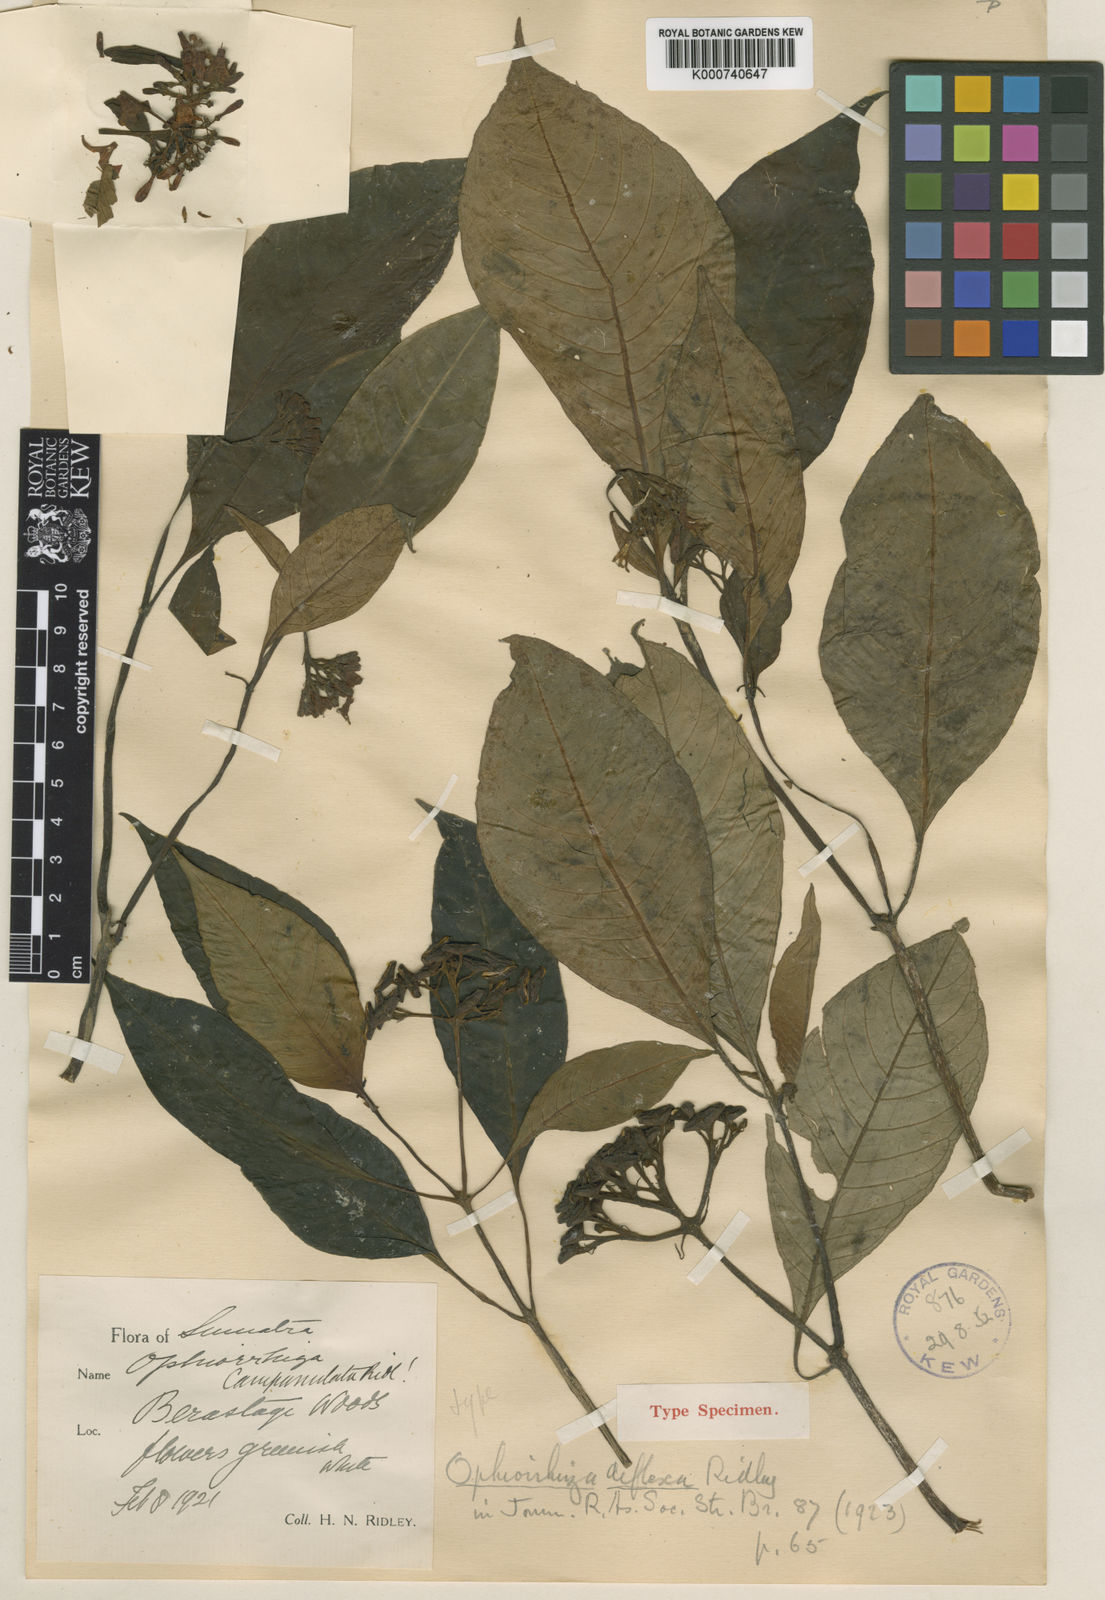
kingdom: Plantae
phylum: Tracheophyta
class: Magnoliopsida
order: Gentianales
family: Rubiaceae
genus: Ophiorrhiza
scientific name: Ophiorrhiza deflexa
